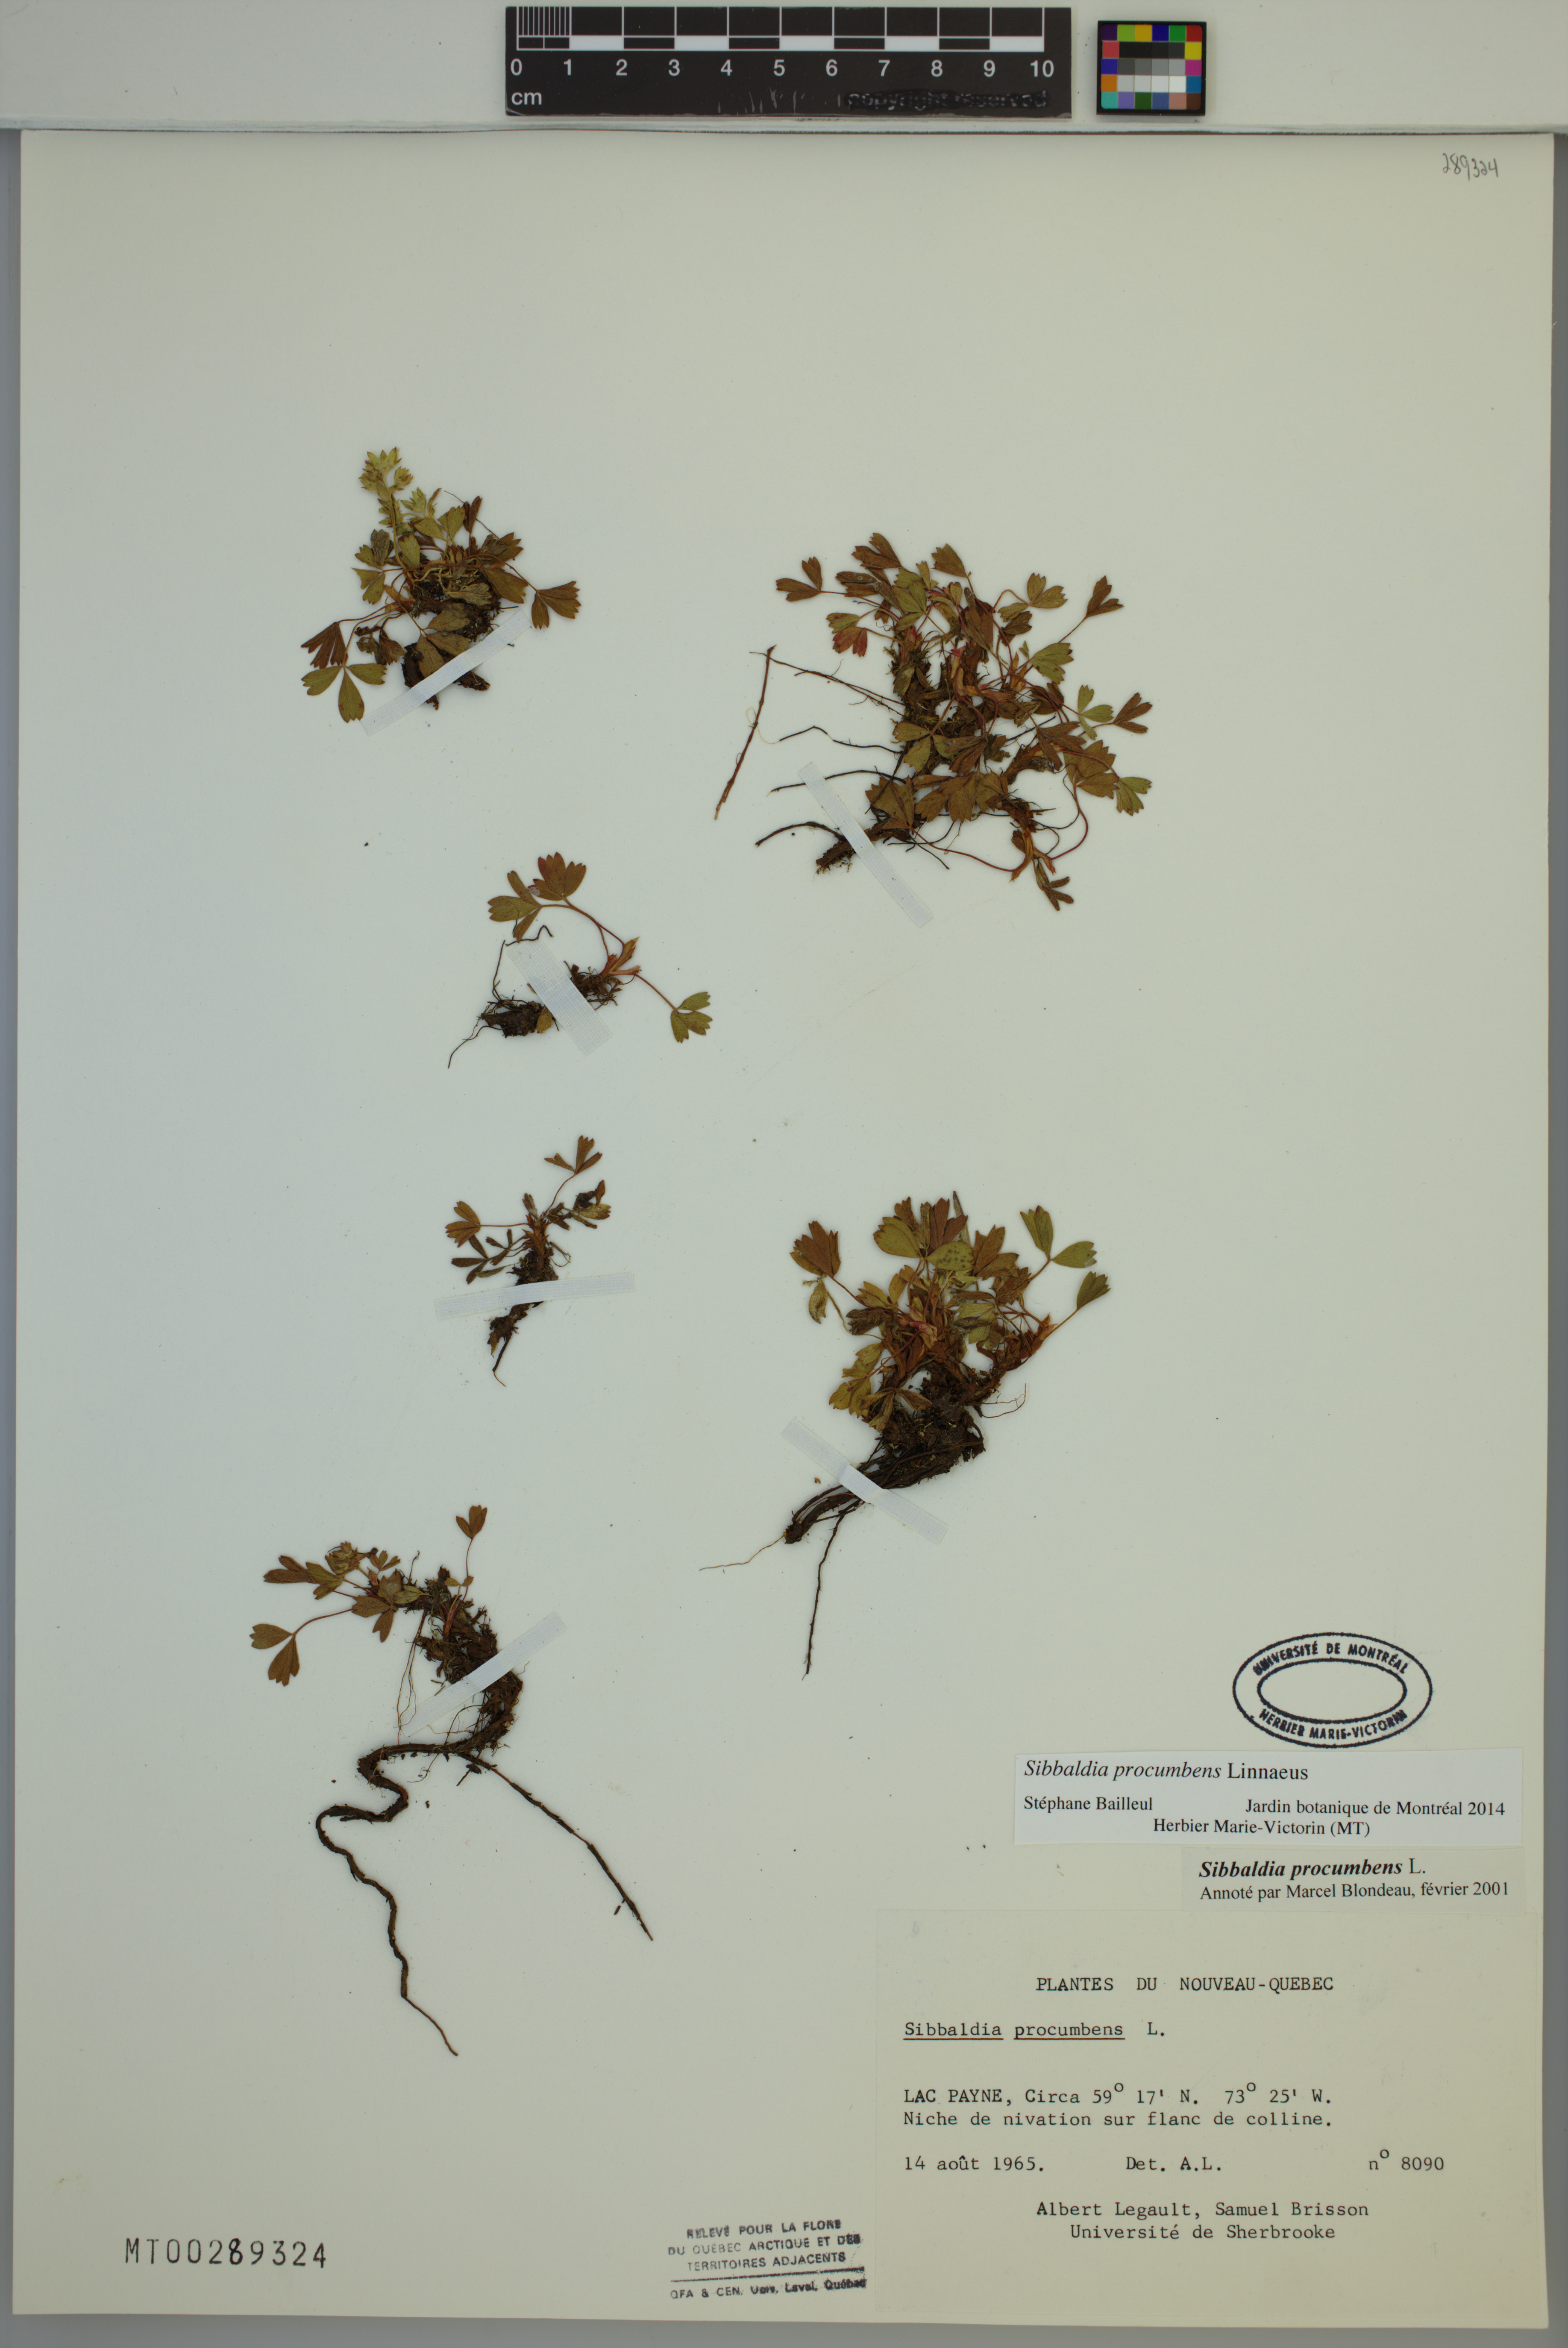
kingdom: Plantae
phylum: Tracheophyta
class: Magnoliopsida
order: Rosales
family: Rosaceae
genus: Sibbaldia
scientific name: Sibbaldia procumbens
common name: Creeping sibbaldia
